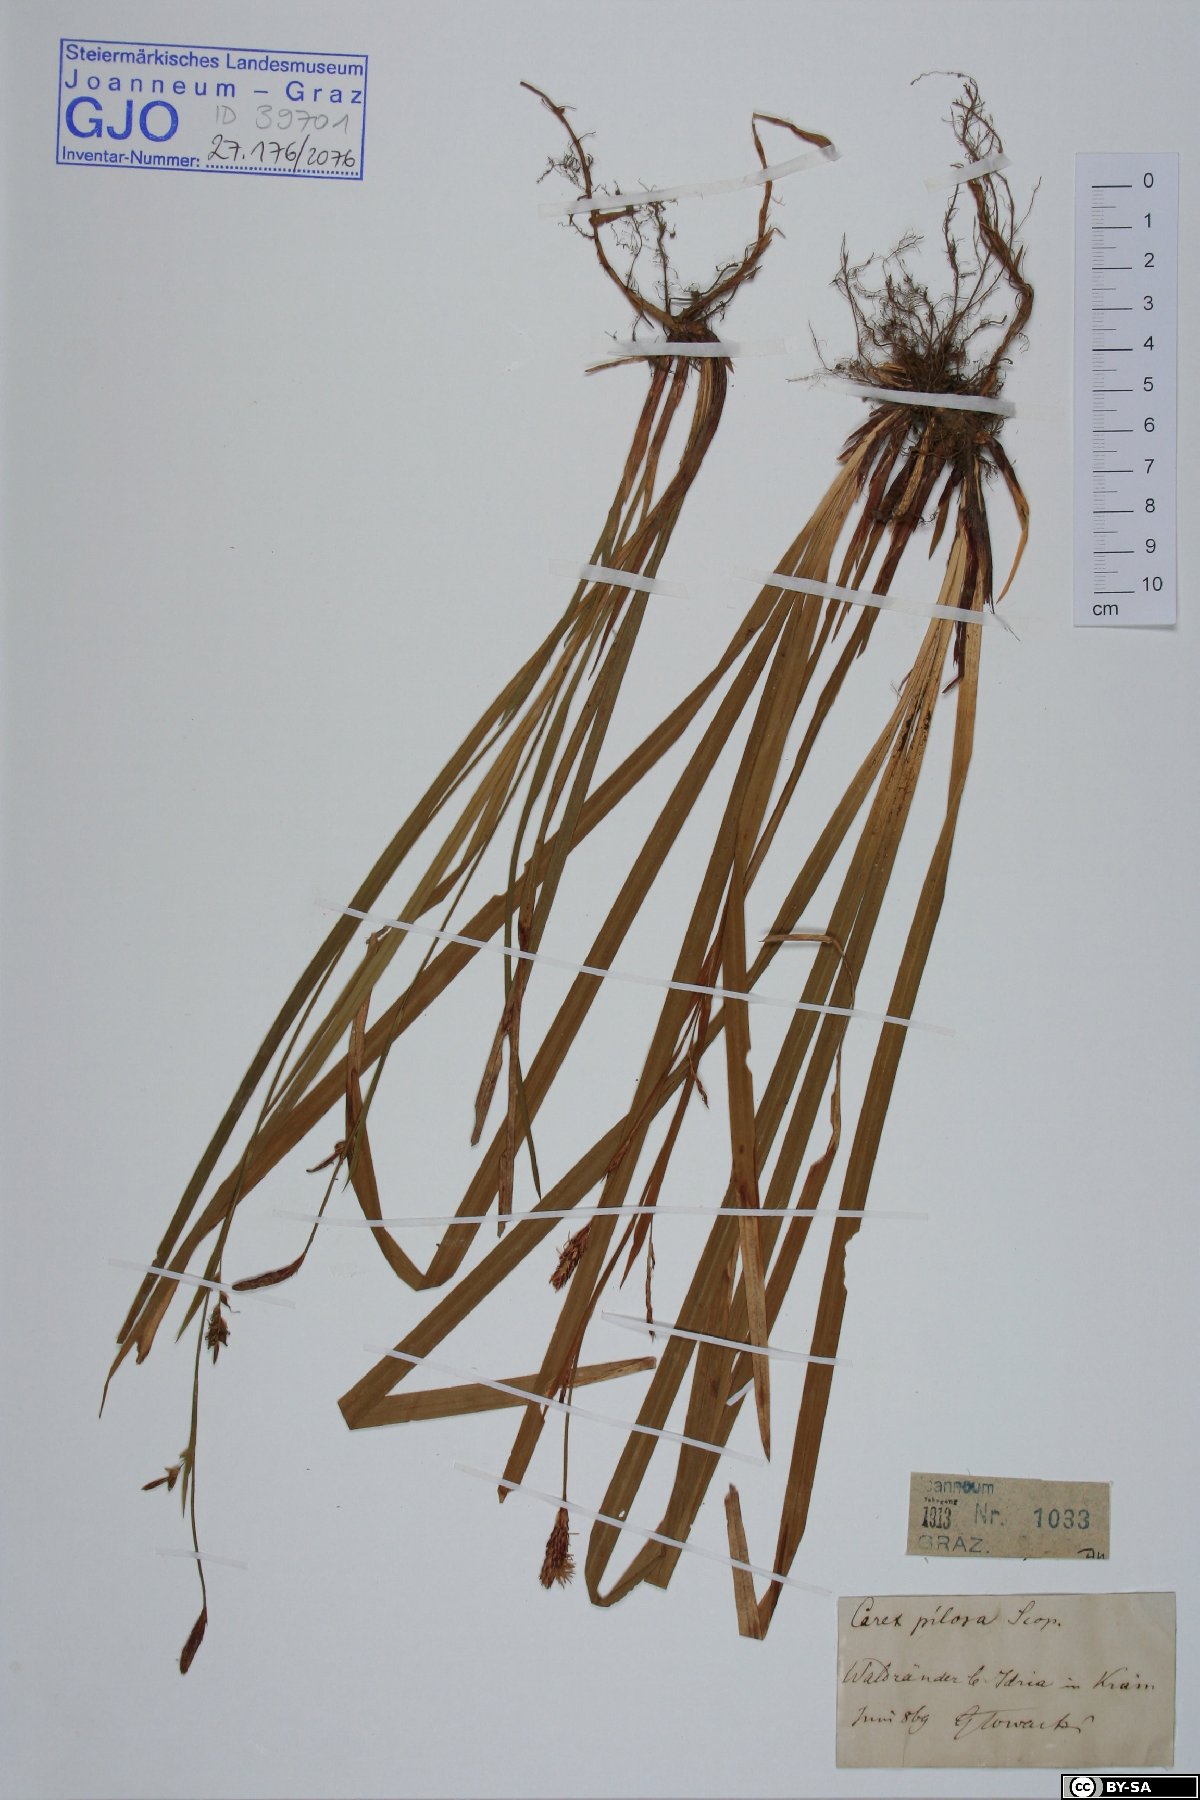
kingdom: Plantae
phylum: Tracheophyta
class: Liliopsida
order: Poales
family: Cyperaceae
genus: Carex
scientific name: Carex pilosa
